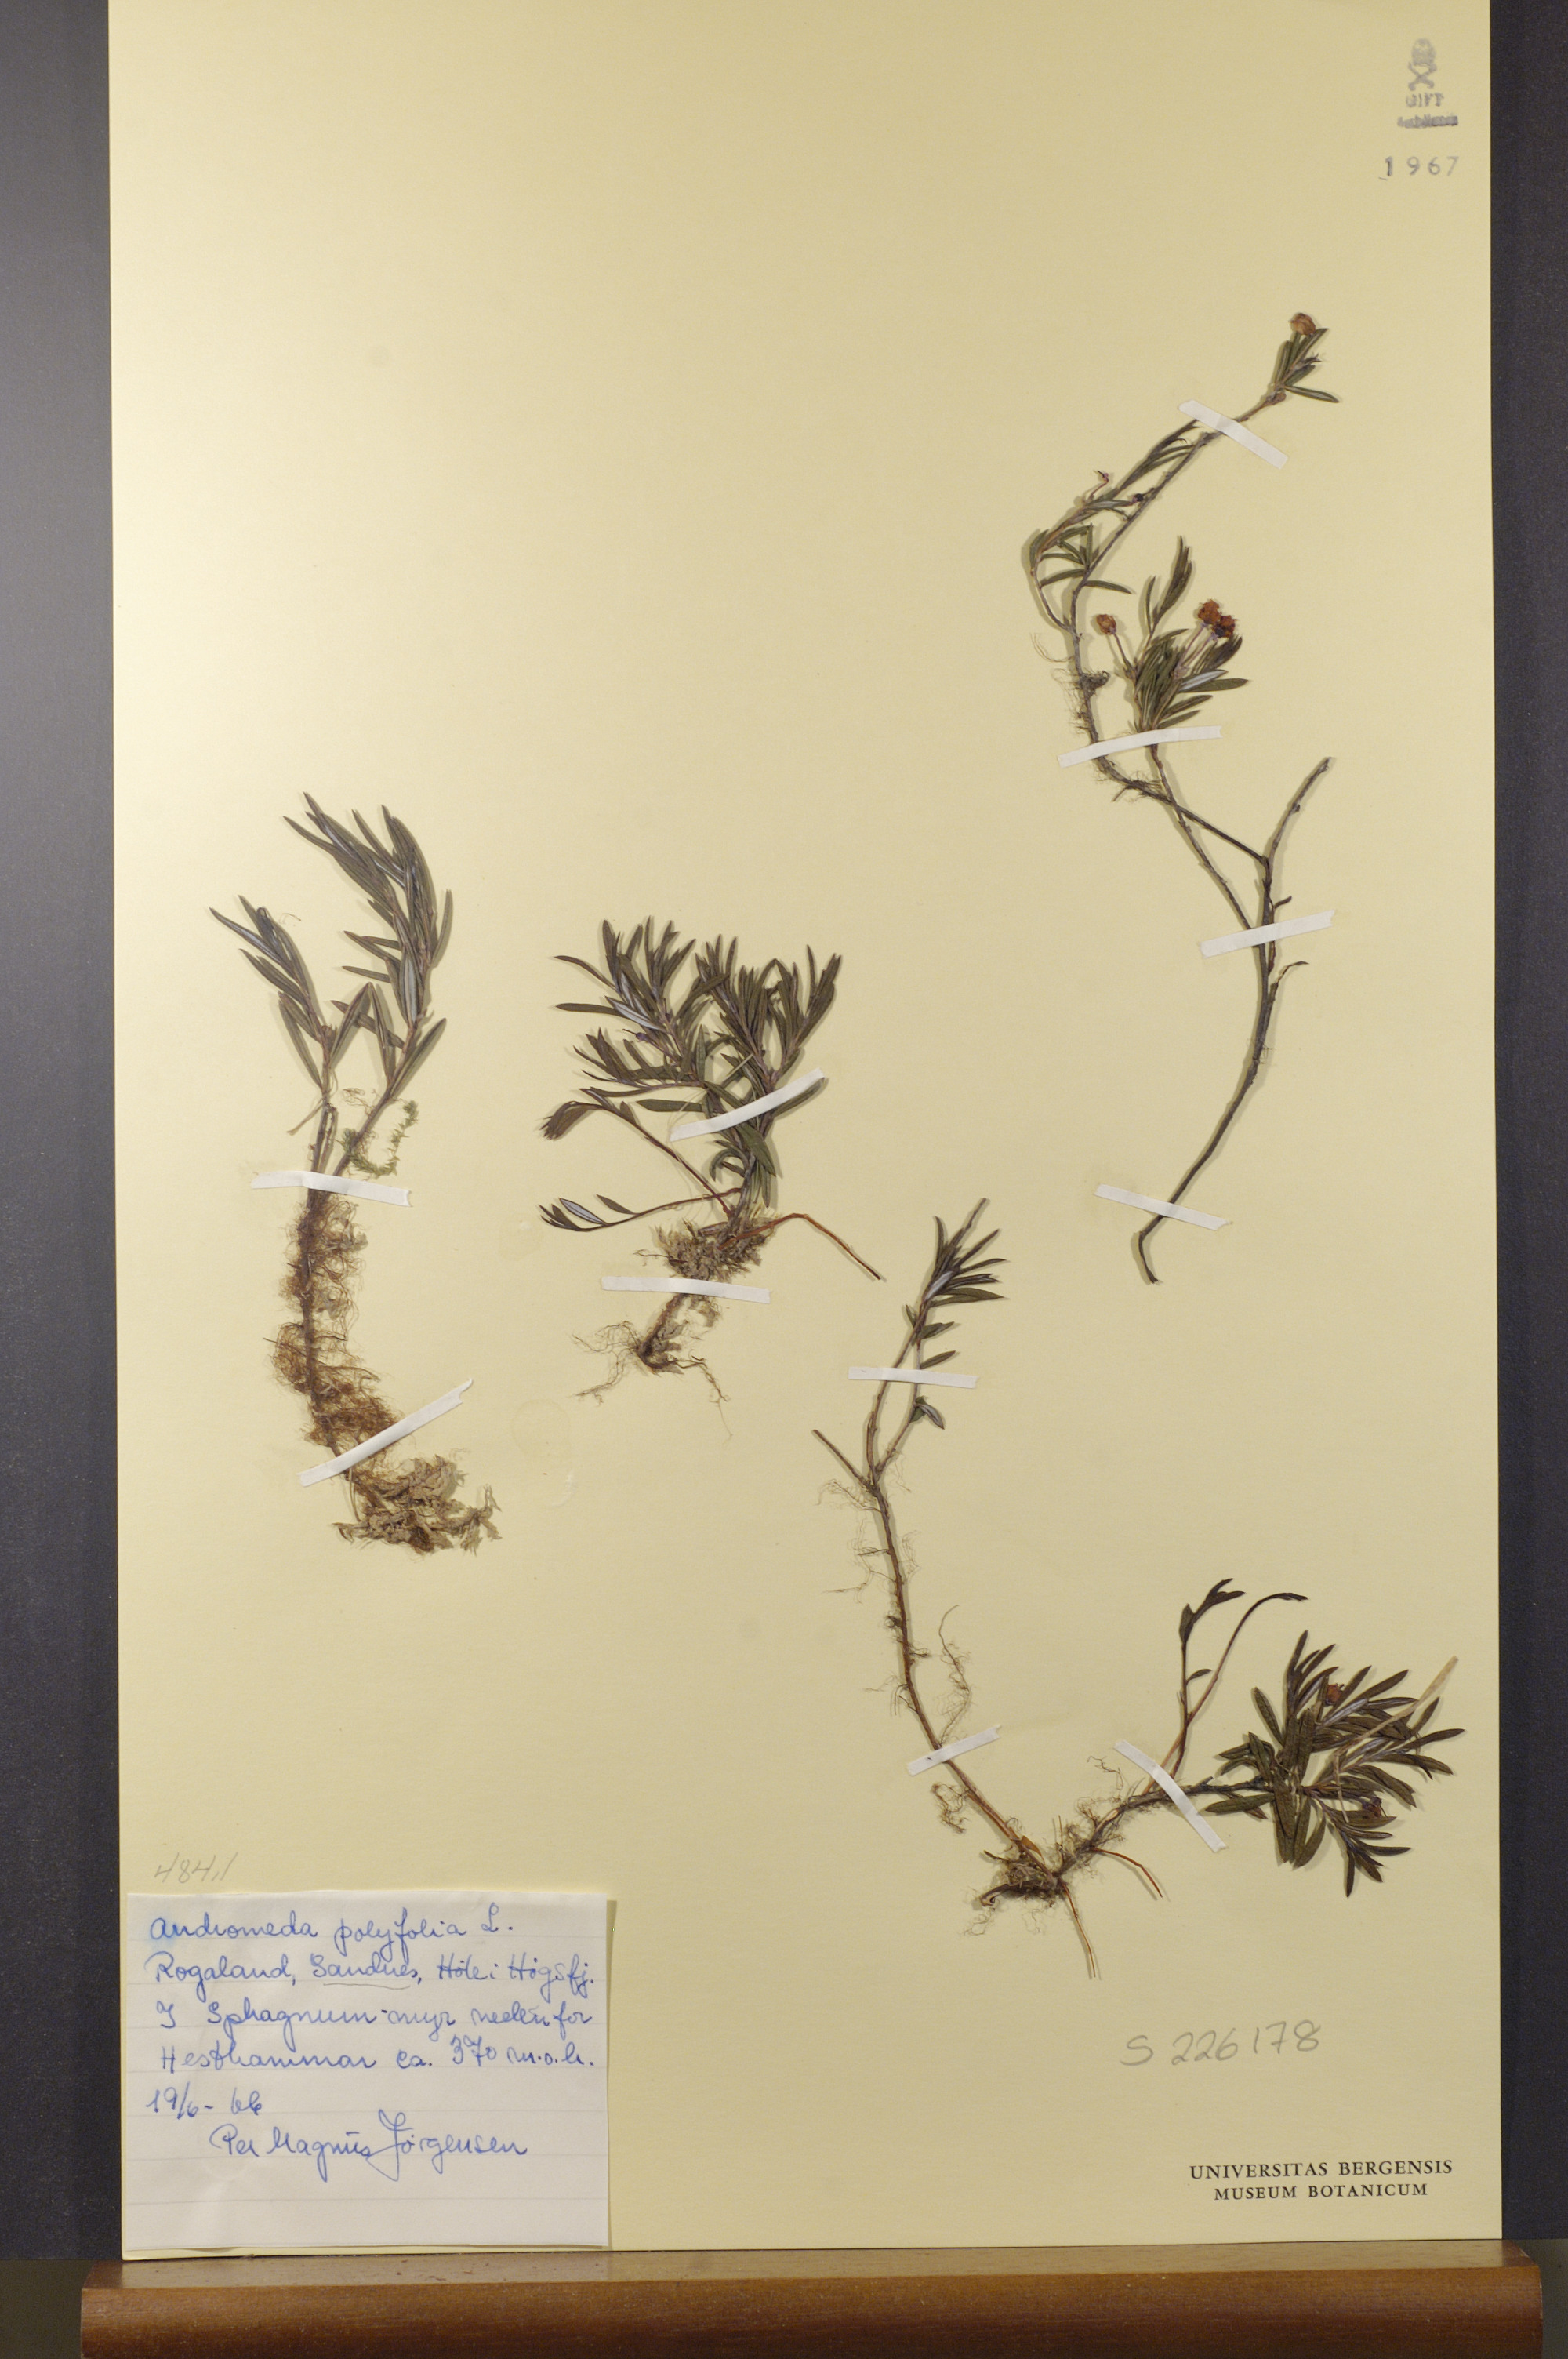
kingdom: Plantae
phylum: Tracheophyta
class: Magnoliopsida
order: Ericales
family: Ericaceae
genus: Andromeda
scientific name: Andromeda polifolia
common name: Bog-rosemary
